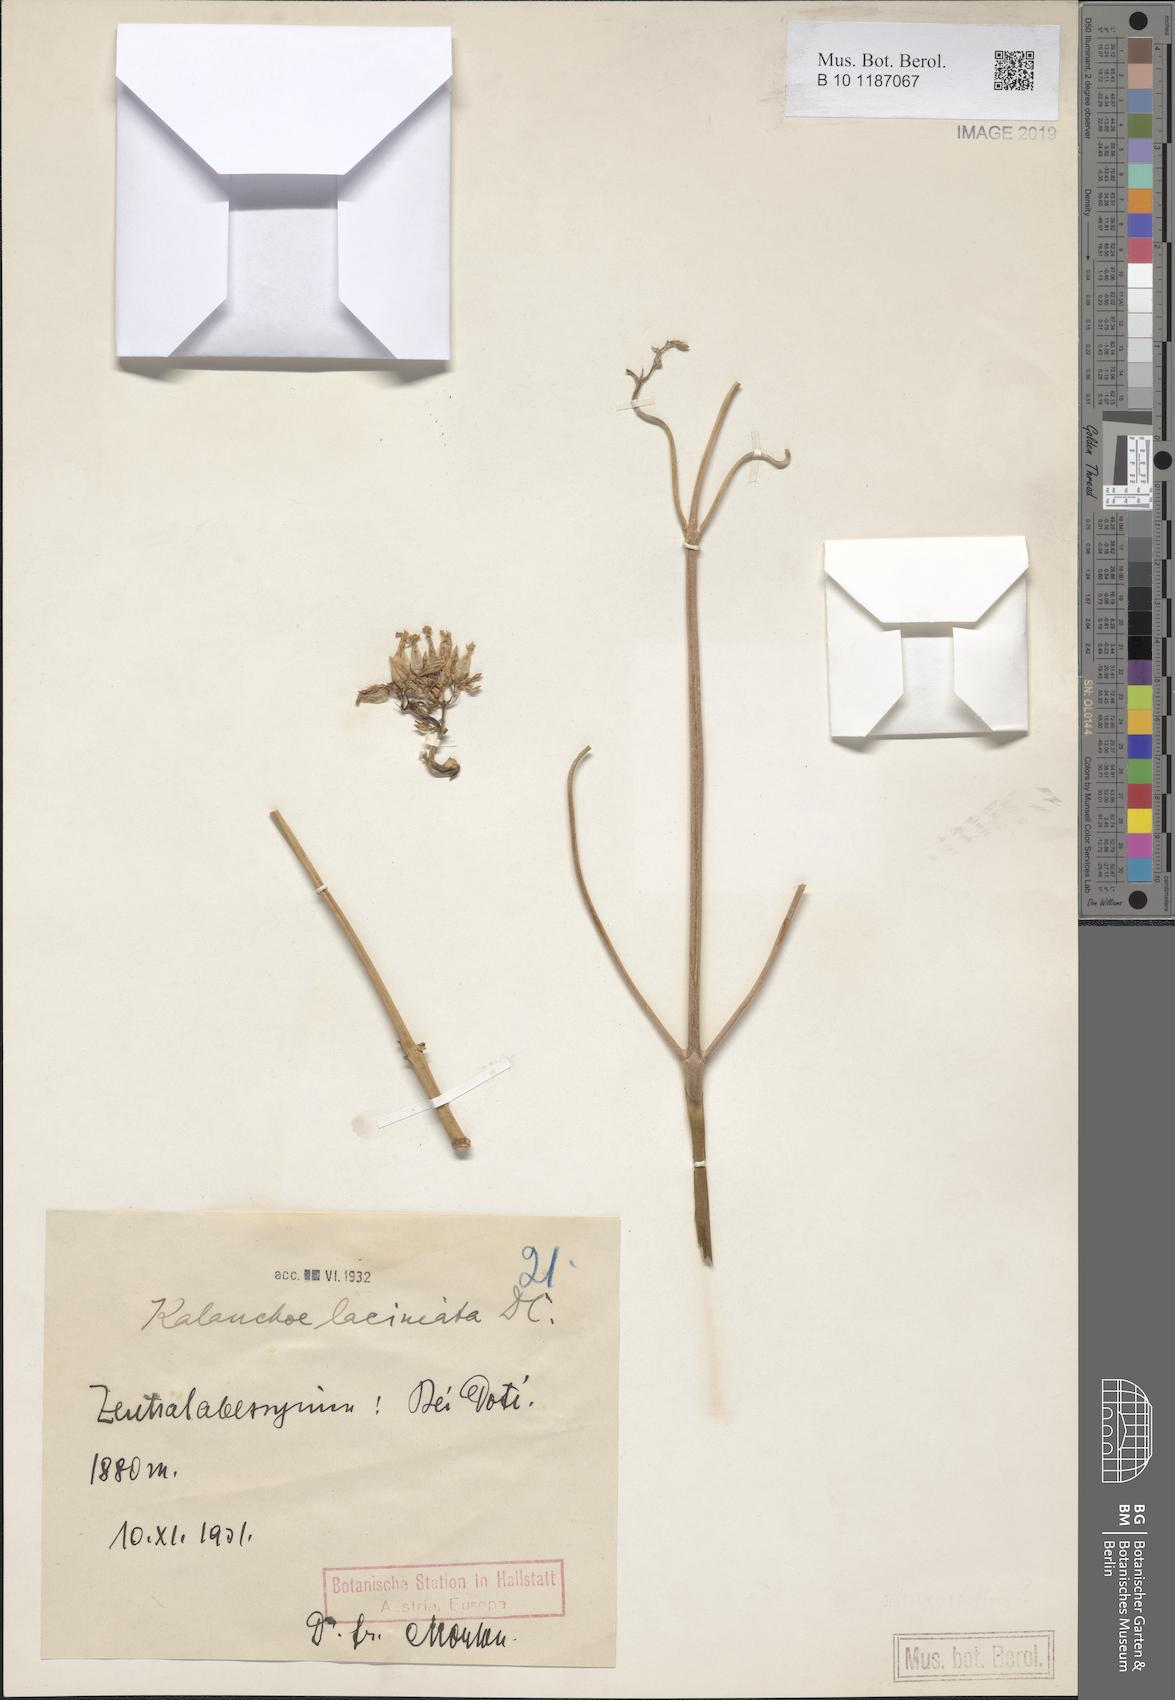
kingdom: Plantae
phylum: Tracheophyta
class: Magnoliopsida
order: Saxifragales
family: Crassulaceae
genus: Kalanchoe
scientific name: Kalanchoe laciniata
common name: Christmastree plant
